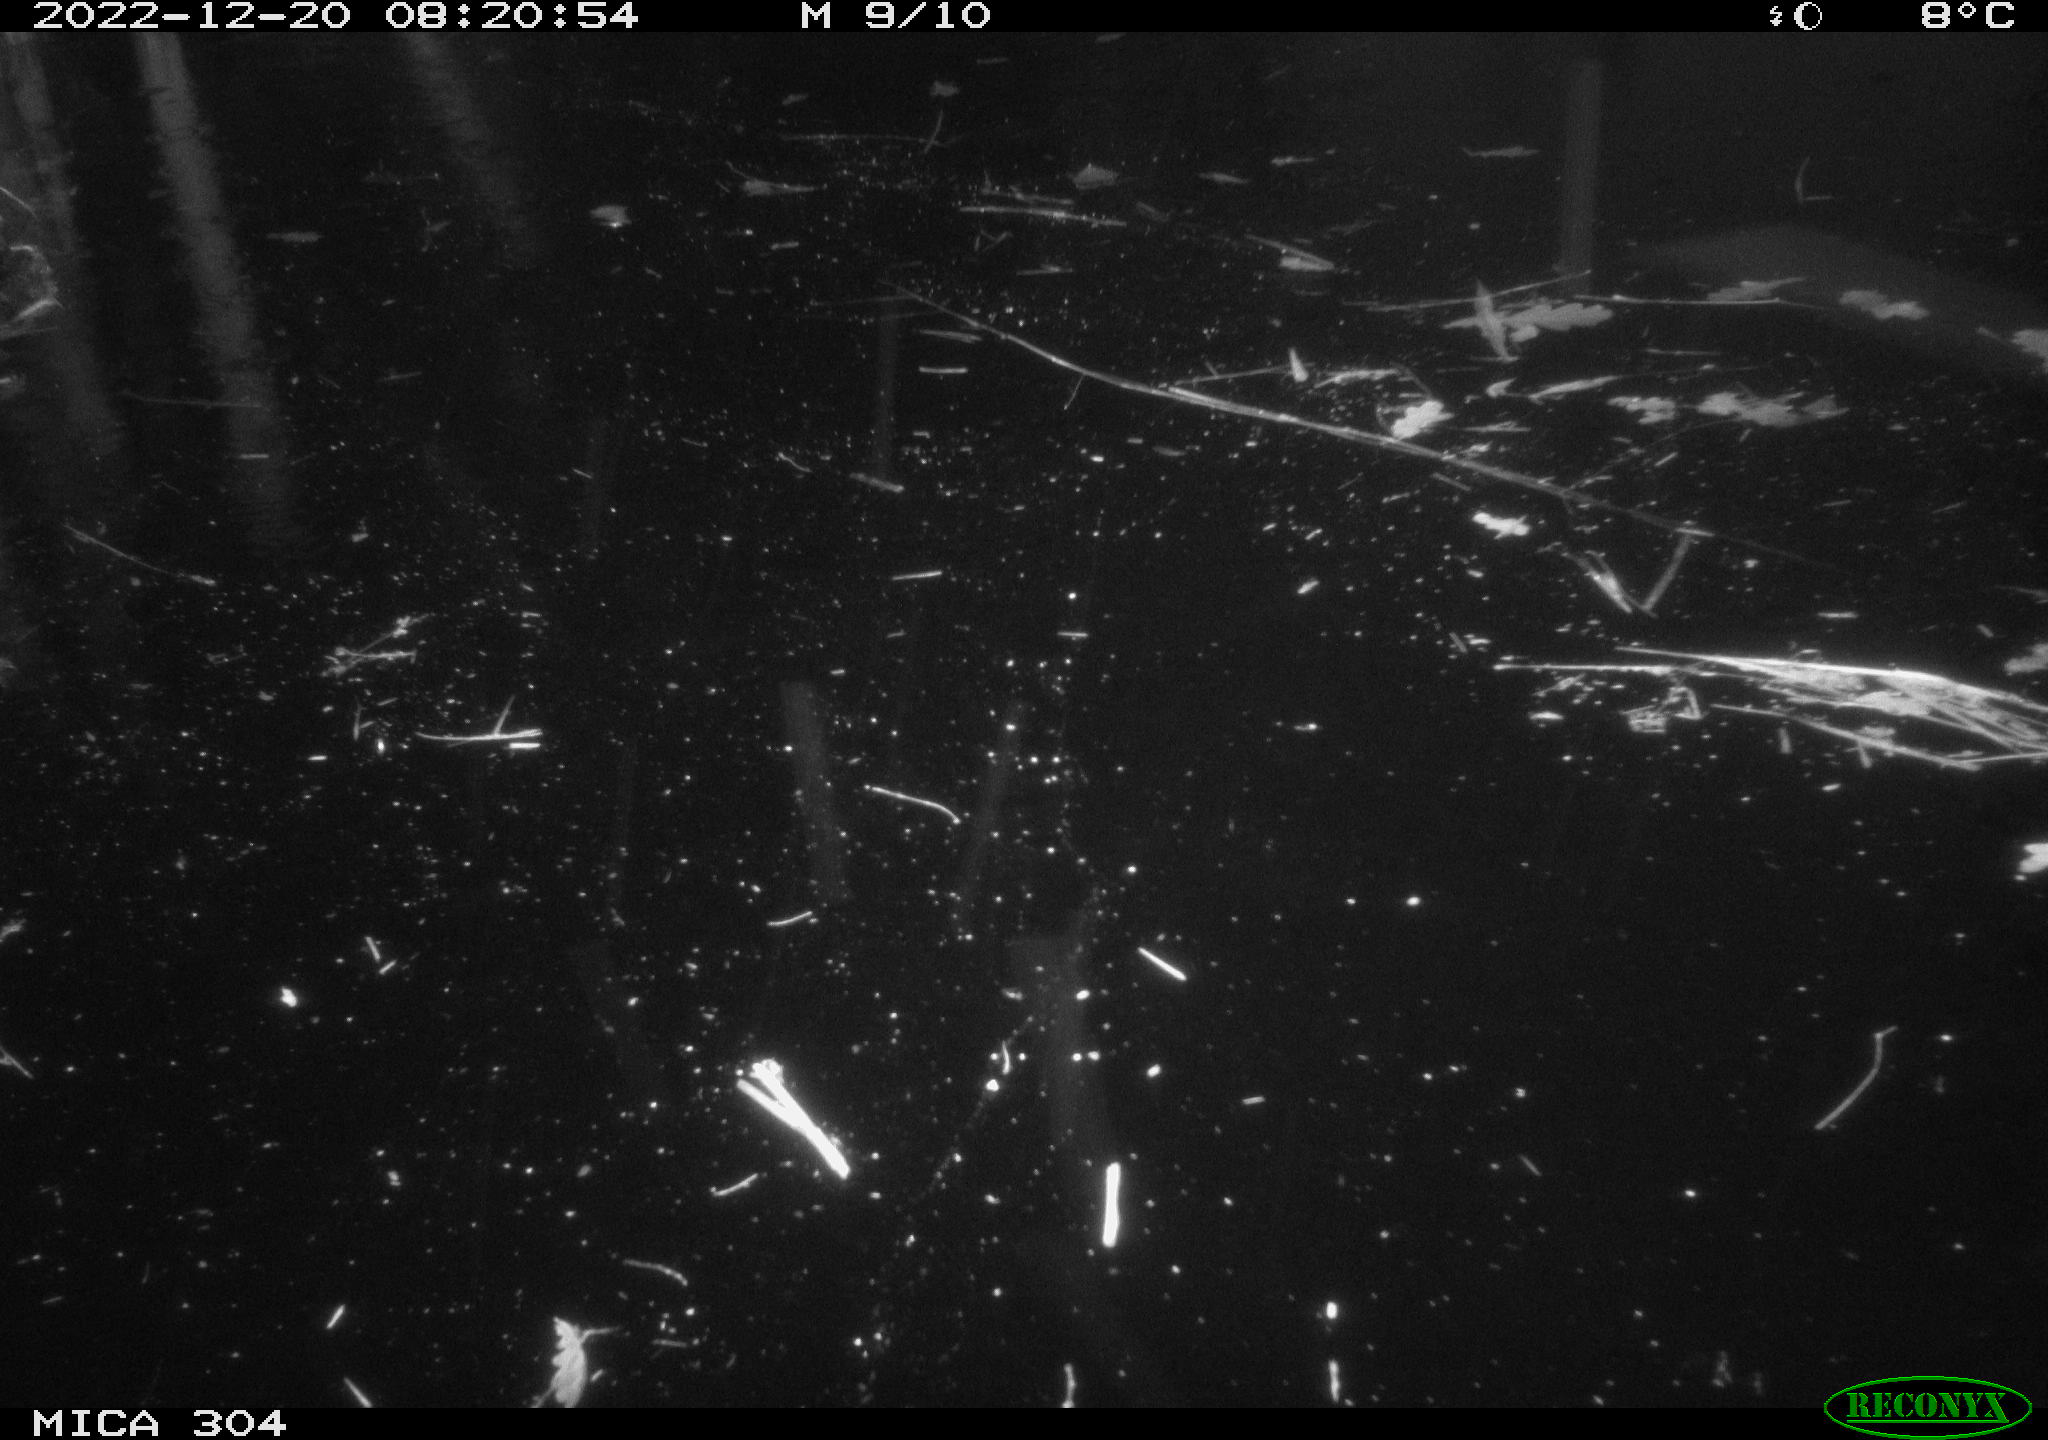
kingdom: Animalia
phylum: Chordata
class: Mammalia
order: Rodentia
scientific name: Rodentia
